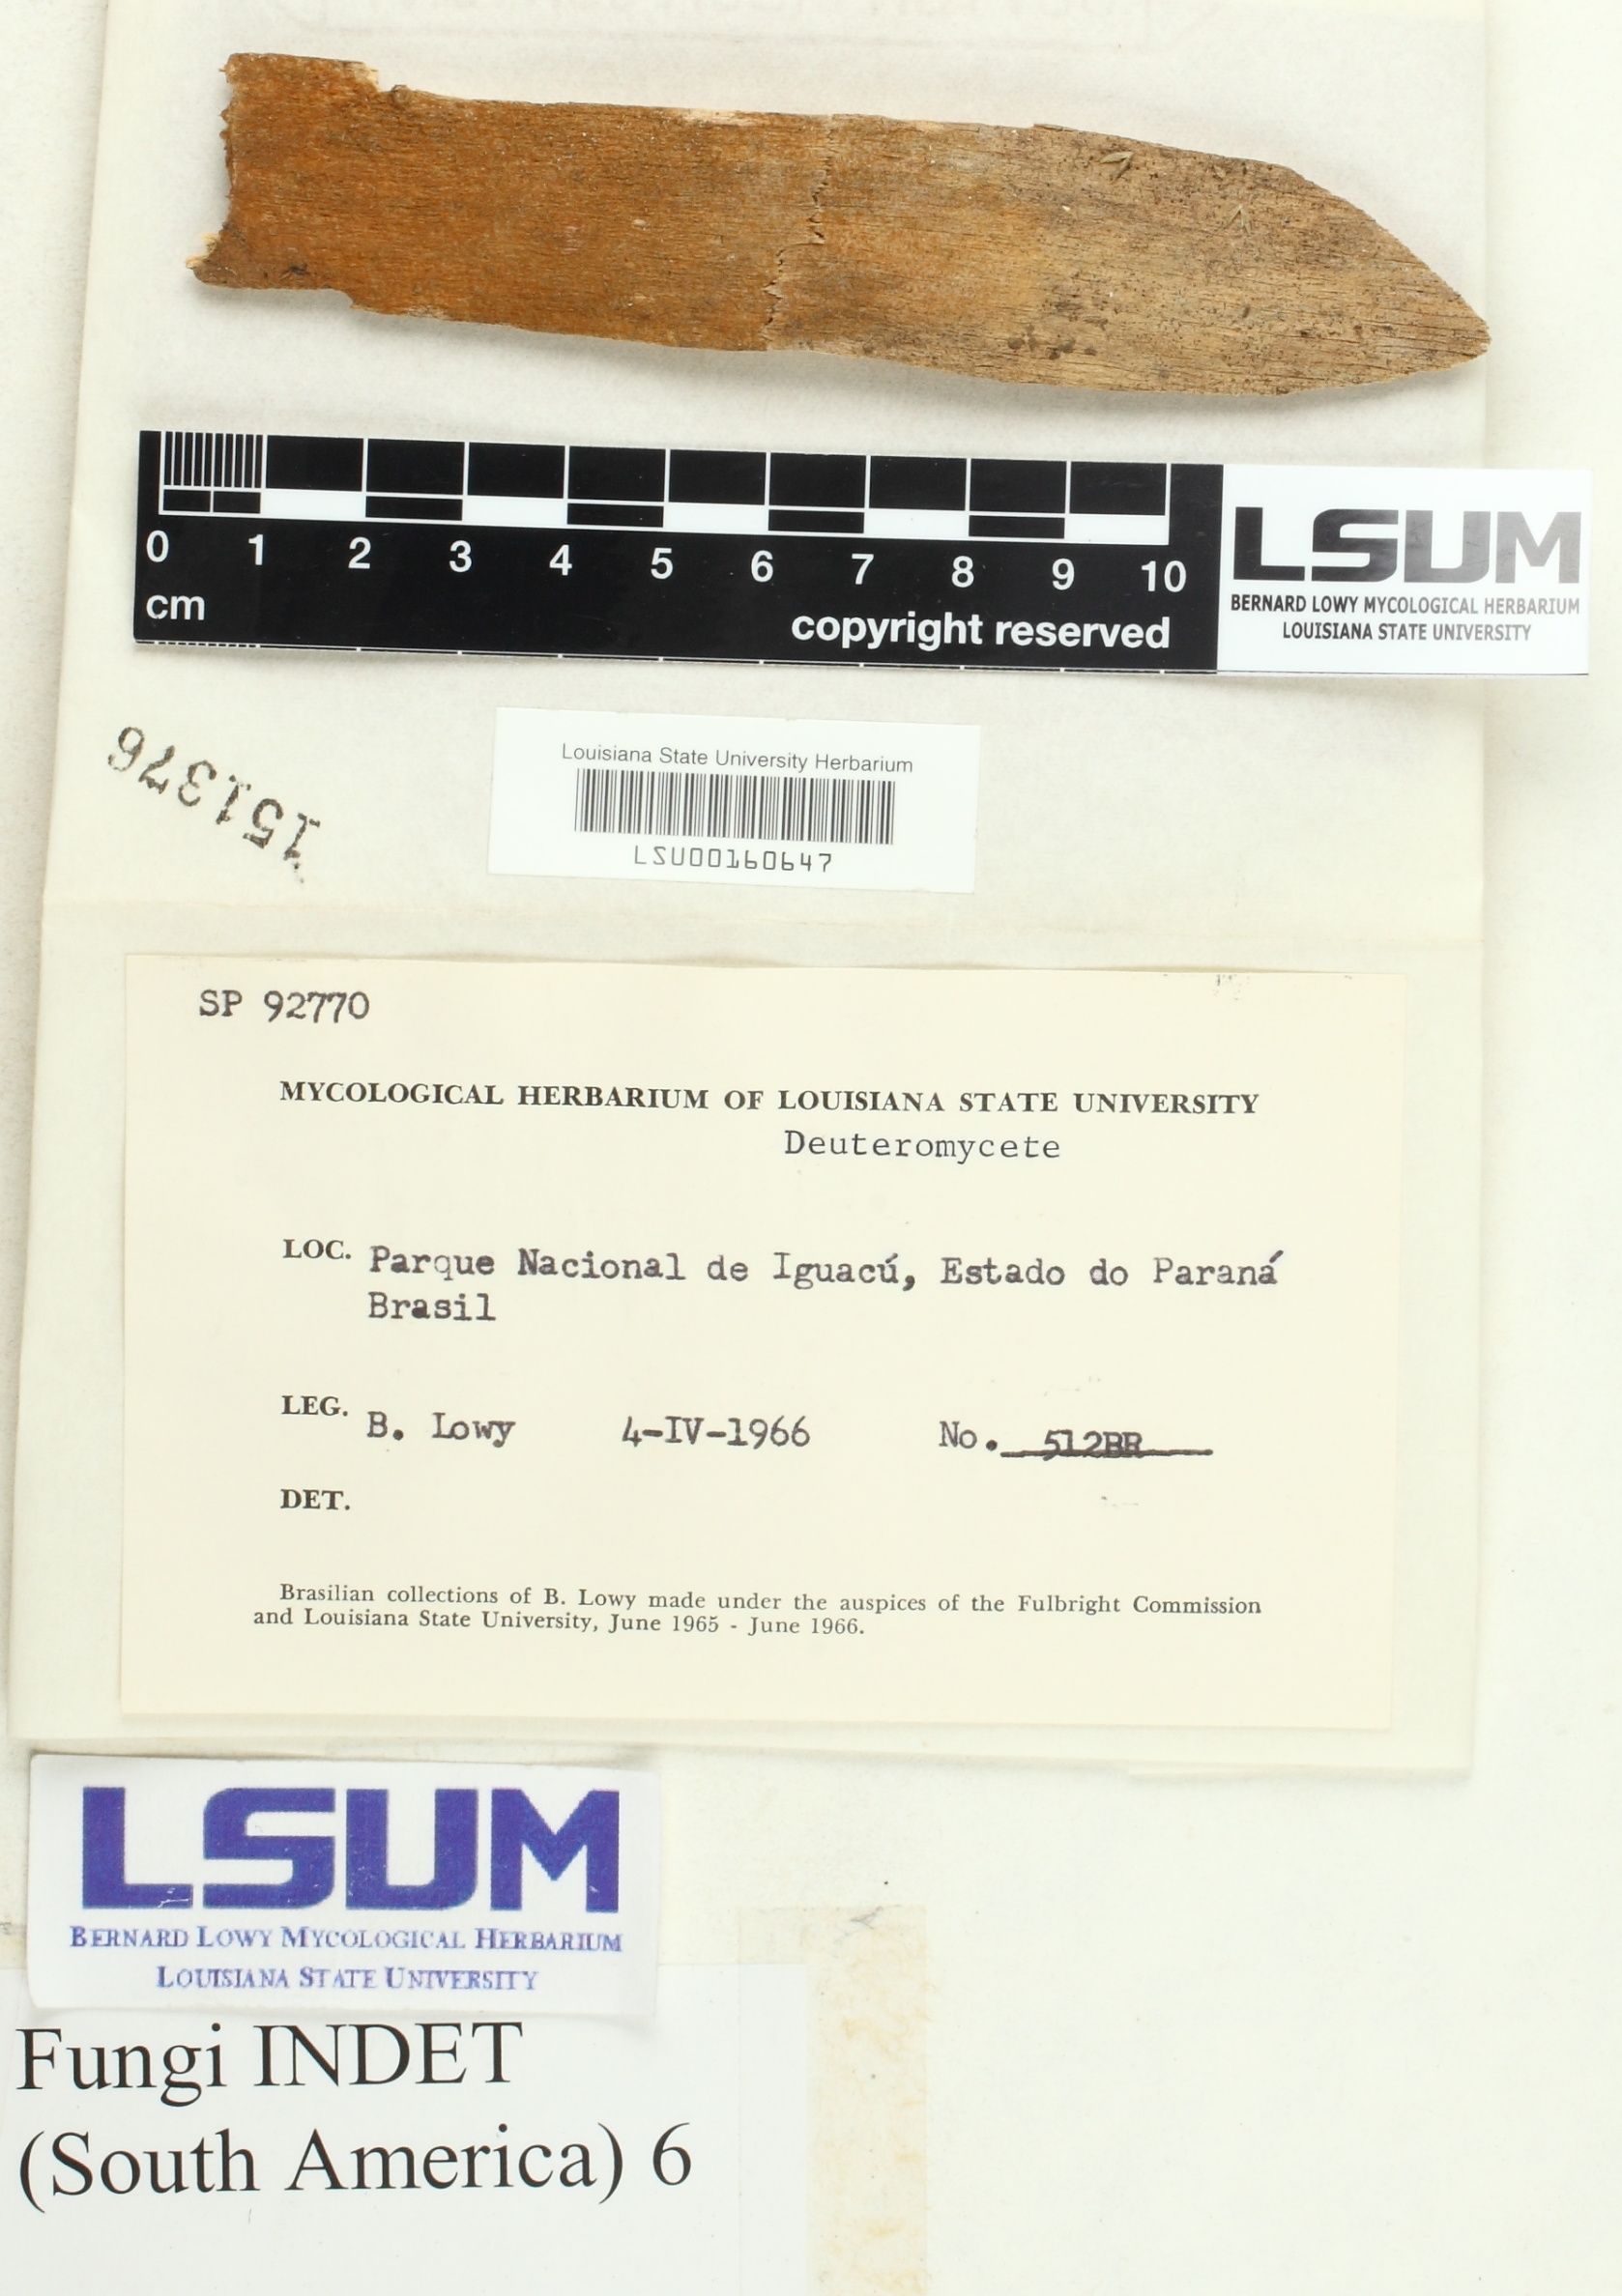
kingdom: Fungi
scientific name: Fungi
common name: Fungi
